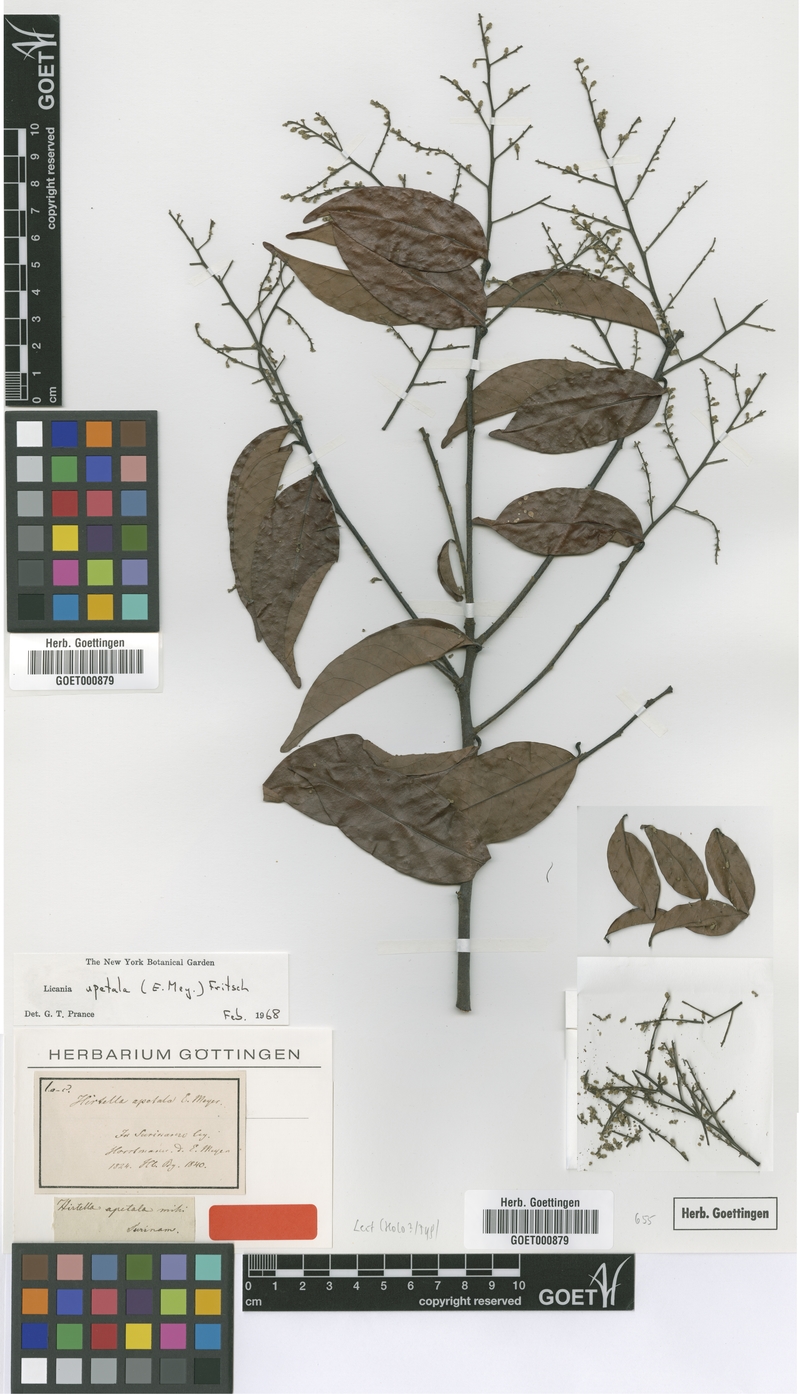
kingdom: Plantae
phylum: Tracheophyta
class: Magnoliopsida
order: Malpighiales
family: Chrysobalanaceae
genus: Leptobalanus
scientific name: Leptobalanus apetalus
